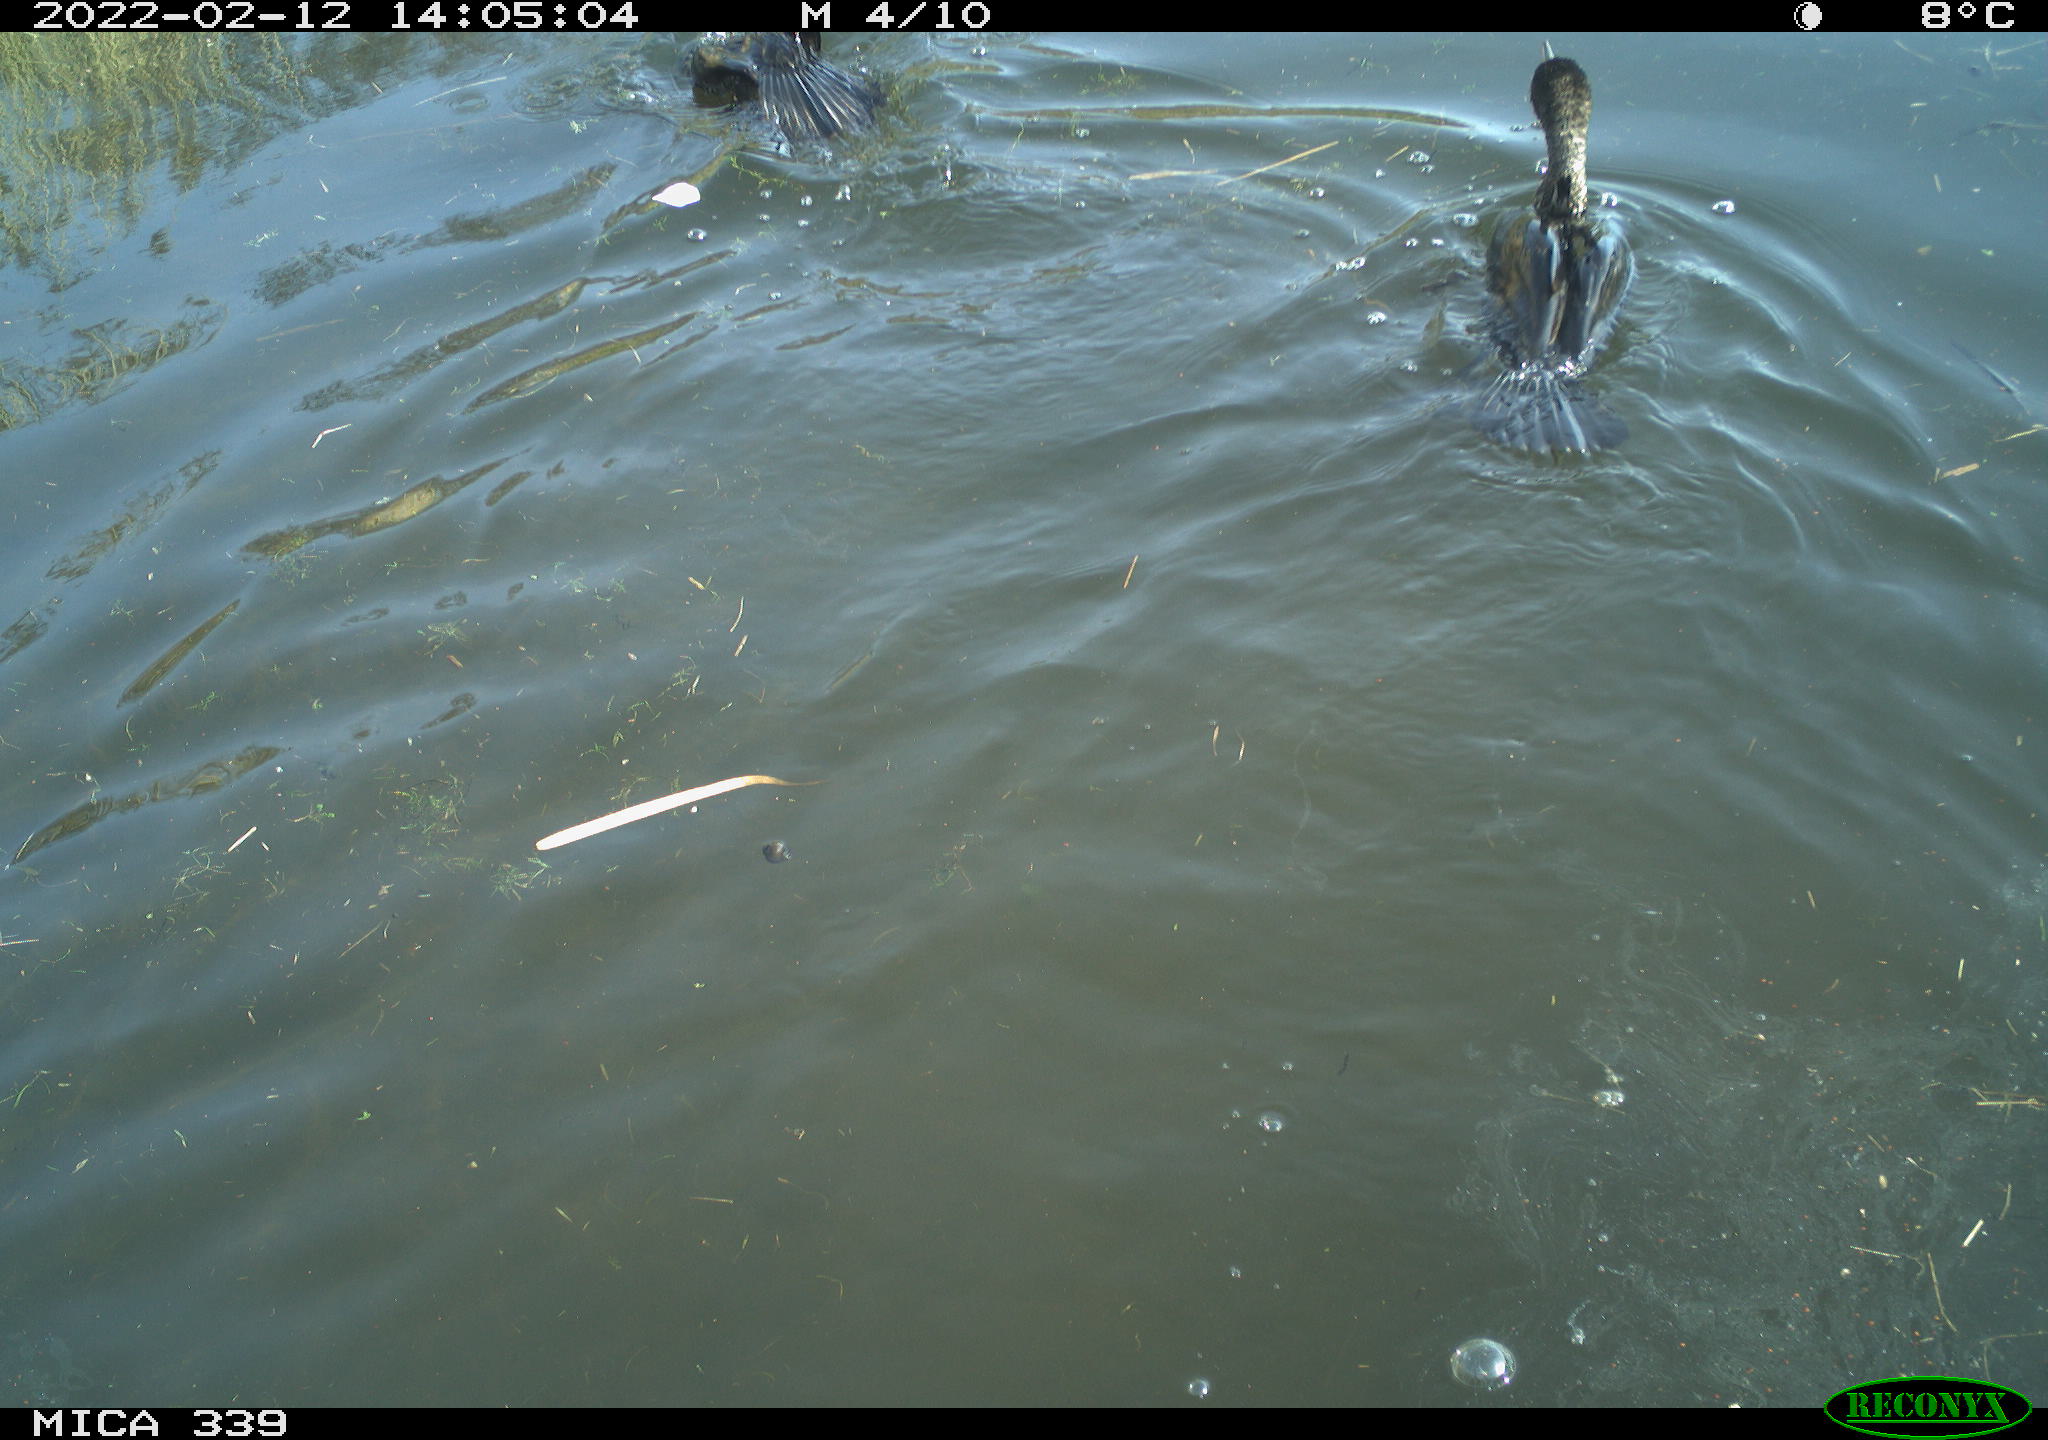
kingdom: Animalia
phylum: Chordata
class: Aves
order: Suliformes
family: Phalacrocoracidae
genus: Phalacrocorax
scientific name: Phalacrocorax carbo
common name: Great cormorant
